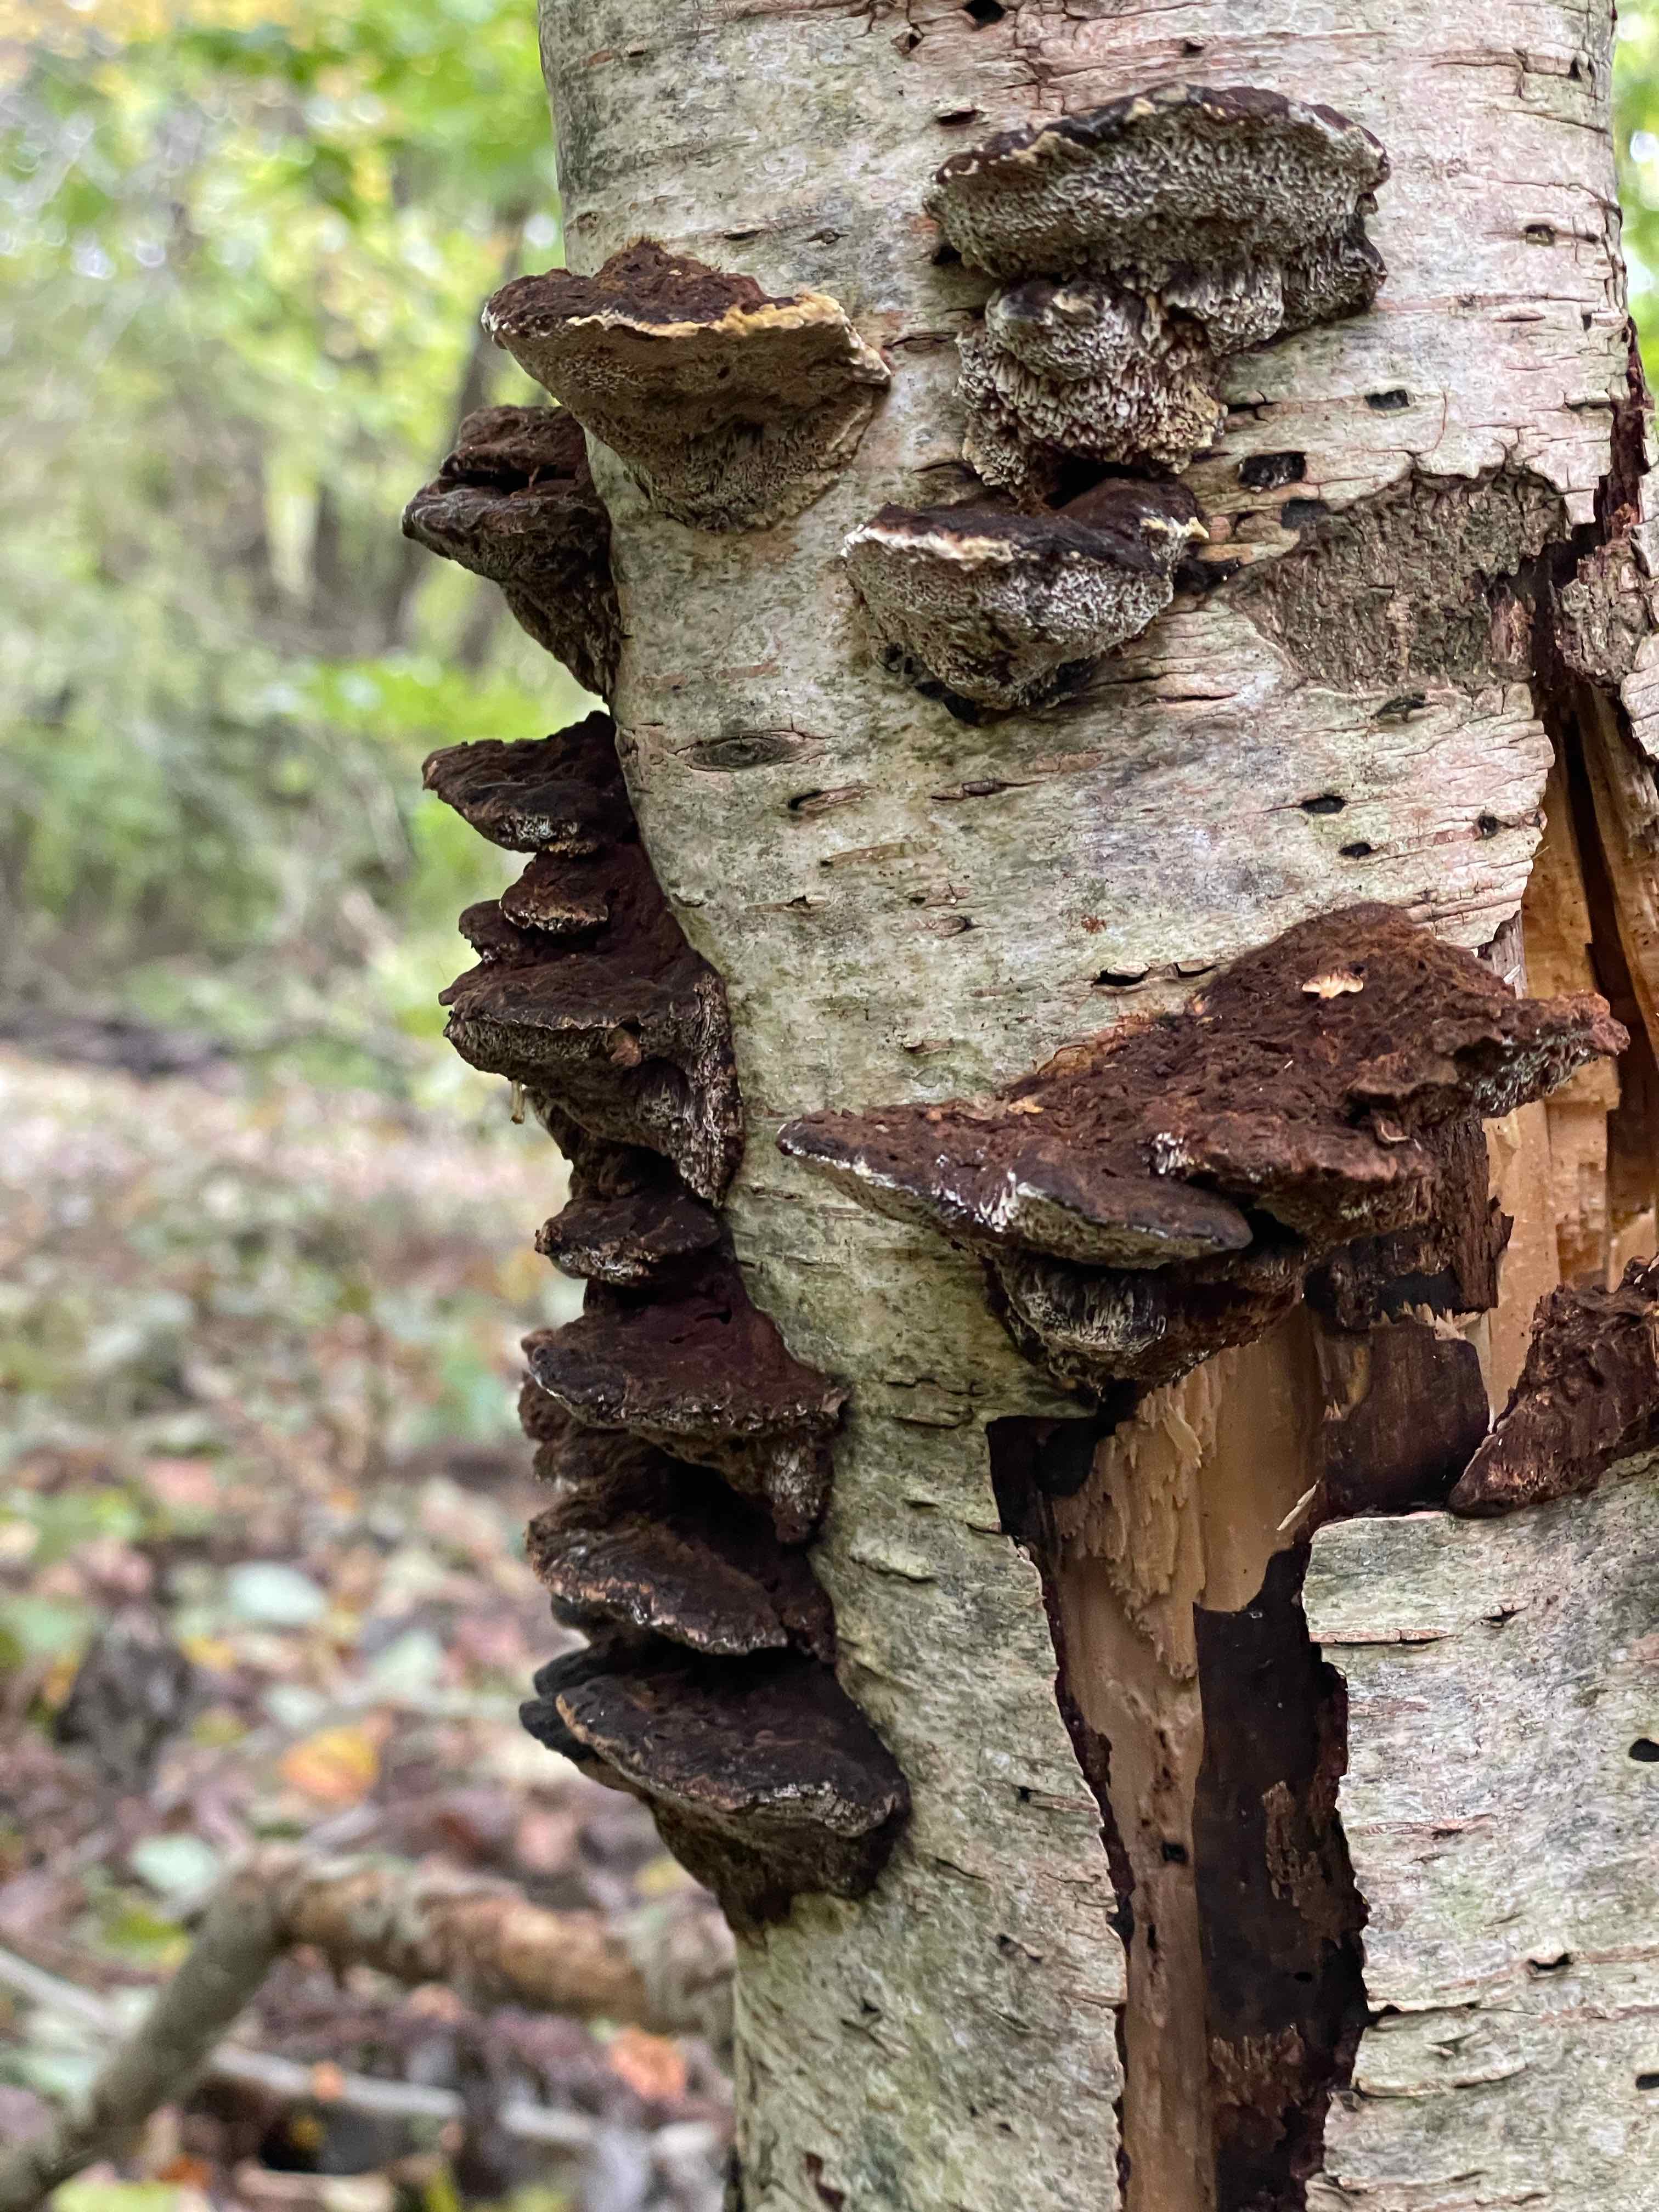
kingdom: Fungi
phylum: Basidiomycota
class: Agaricomycetes
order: Hymenochaetales
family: Hymenochaetaceae
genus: Xanthoporia
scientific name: Xanthoporia radiata
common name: elle-spejlporesvamp
